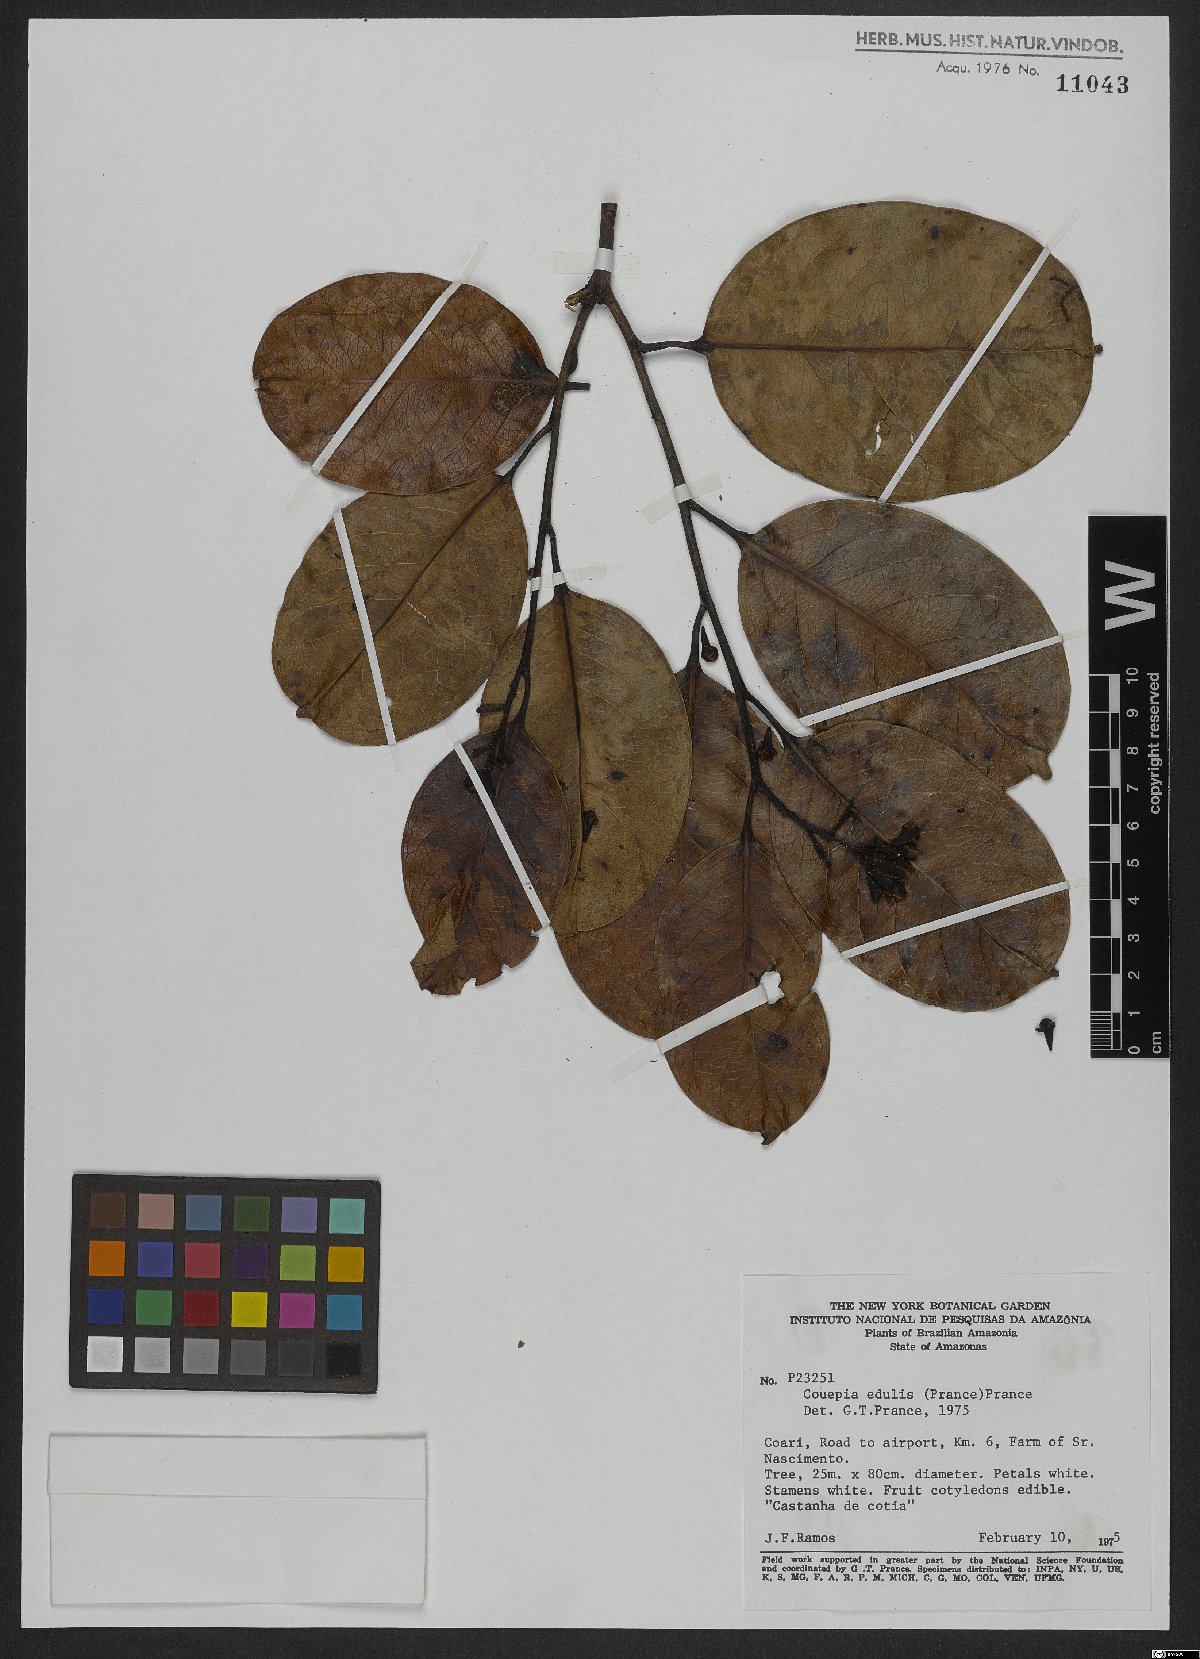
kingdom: Plantae
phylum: Tracheophyta
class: Magnoliopsida
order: Malpighiales
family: Chrysobalanaceae
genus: Acioa
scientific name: Acioa edulis
